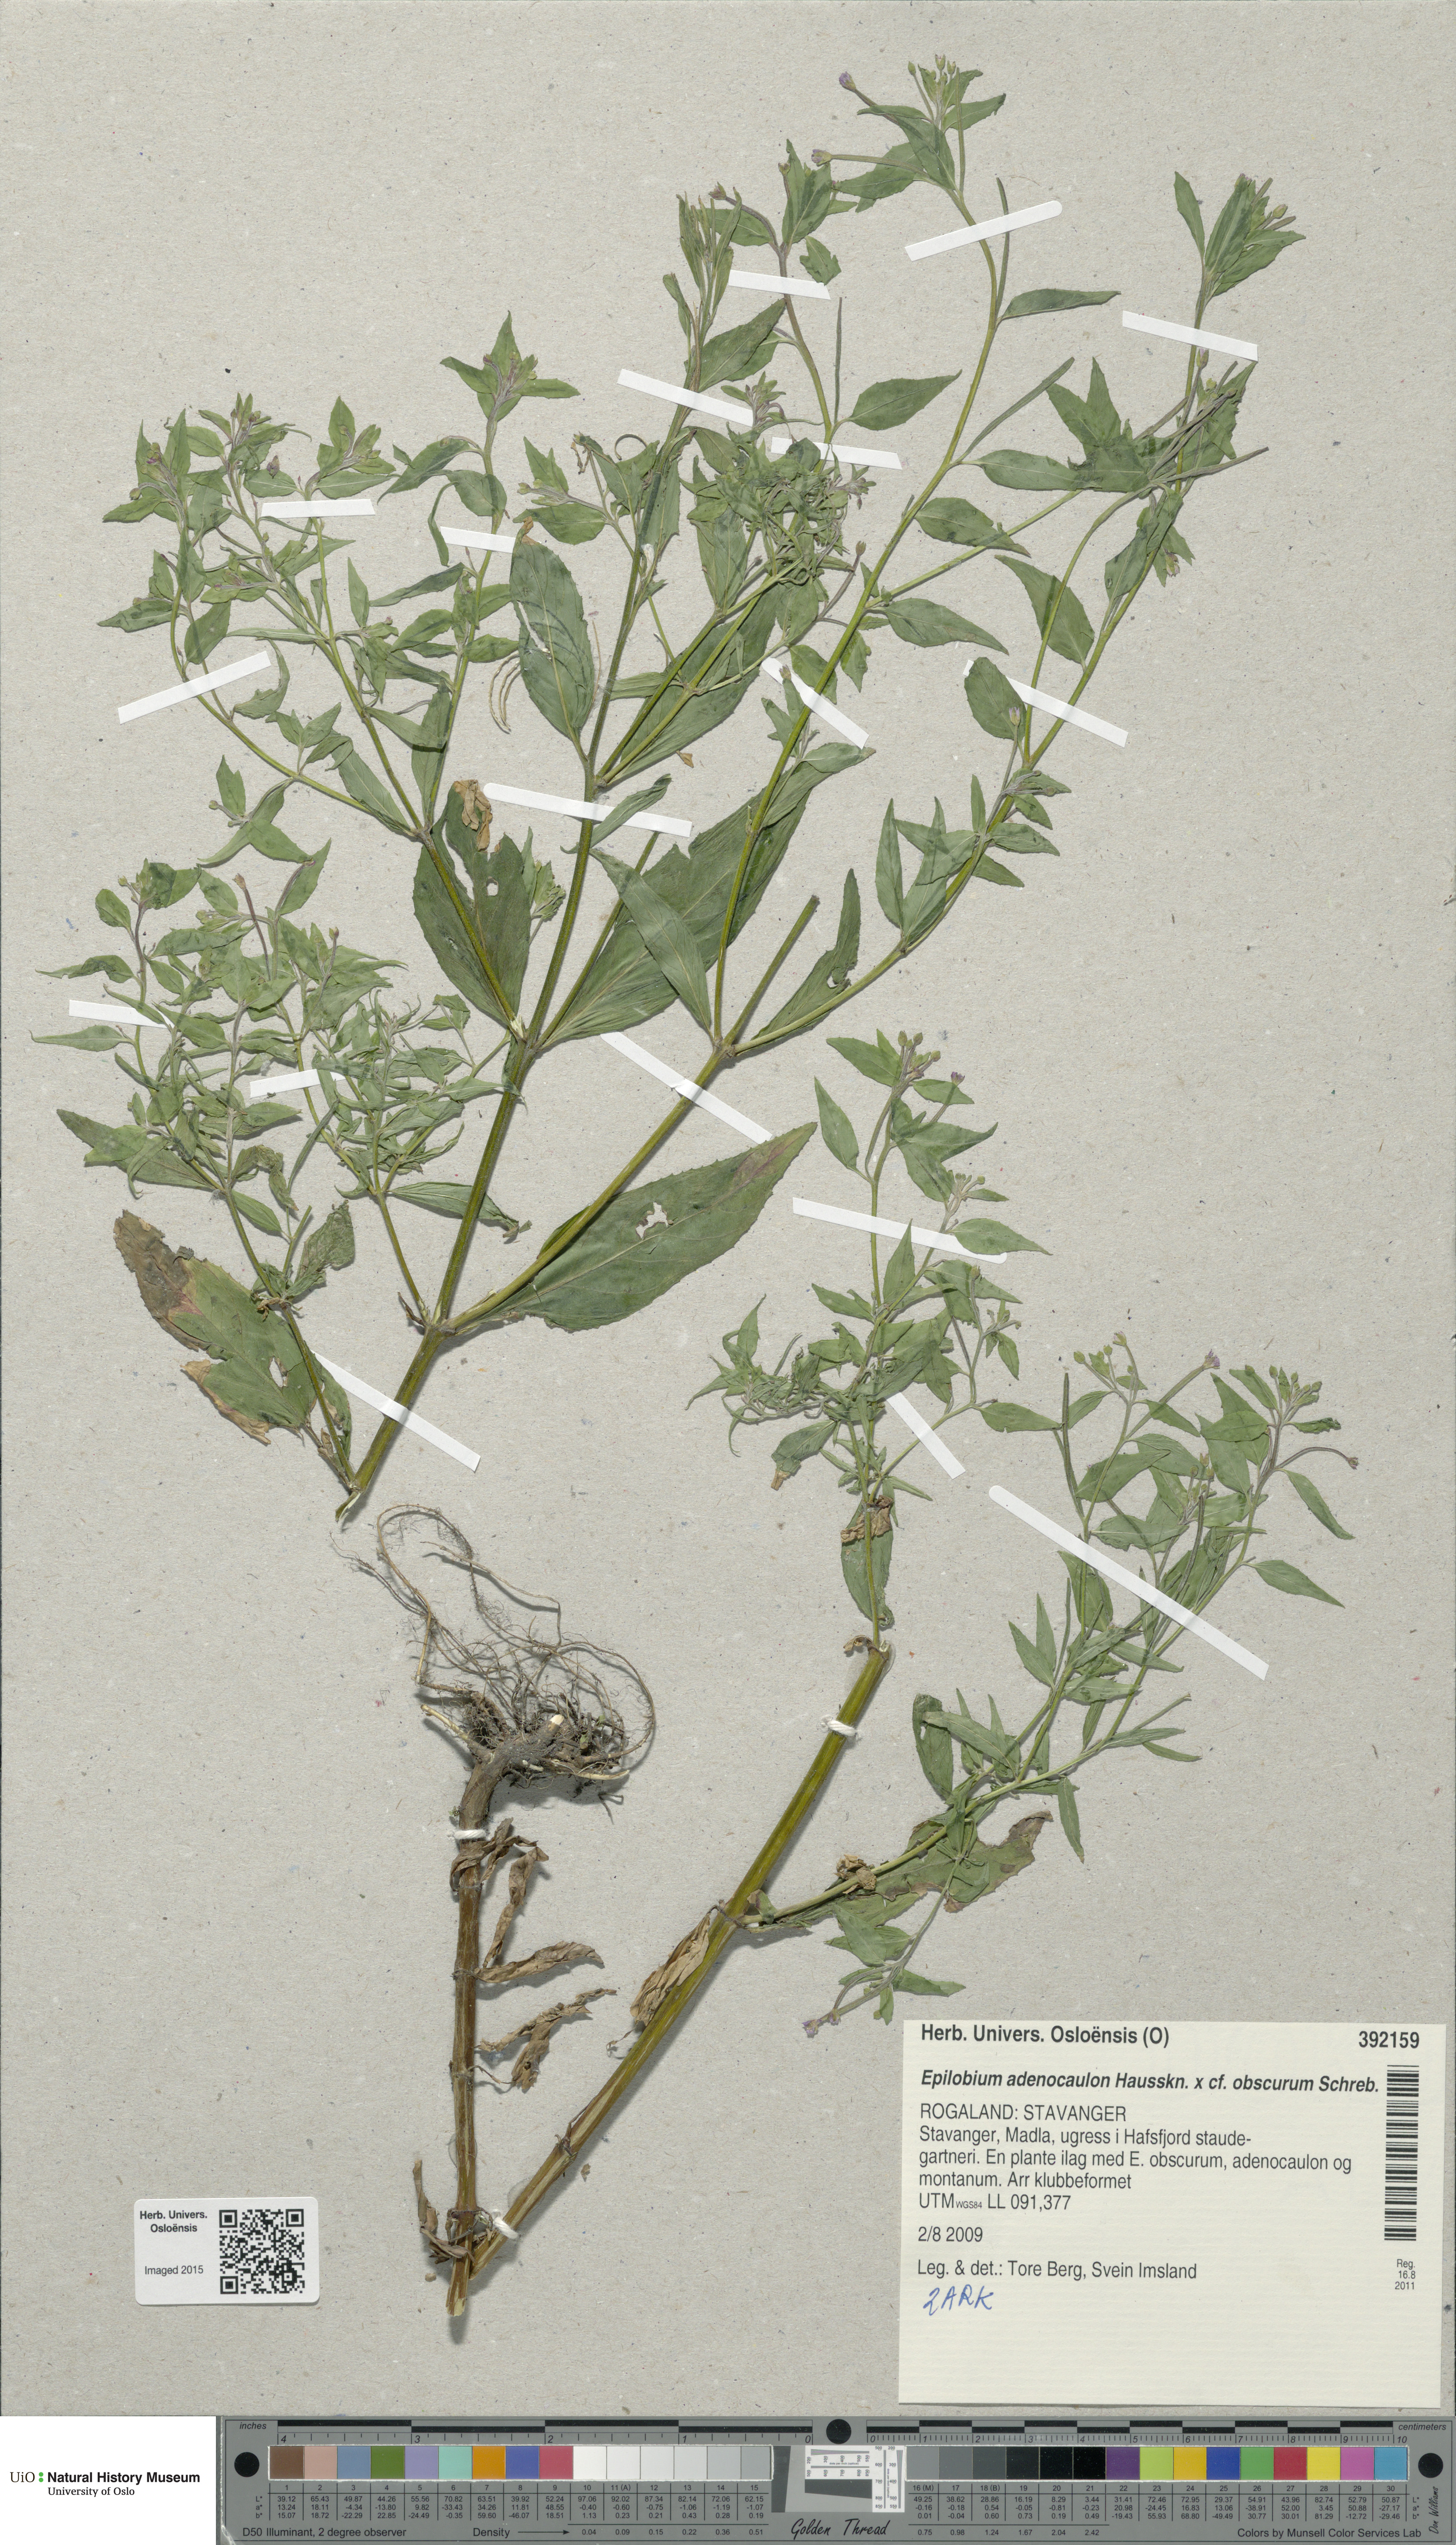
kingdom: Plantae
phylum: Tracheophyta
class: Magnoliopsida
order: Myrtales
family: Onagraceae
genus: Epilobium
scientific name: Epilobium ciliatum
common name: American willowherb
